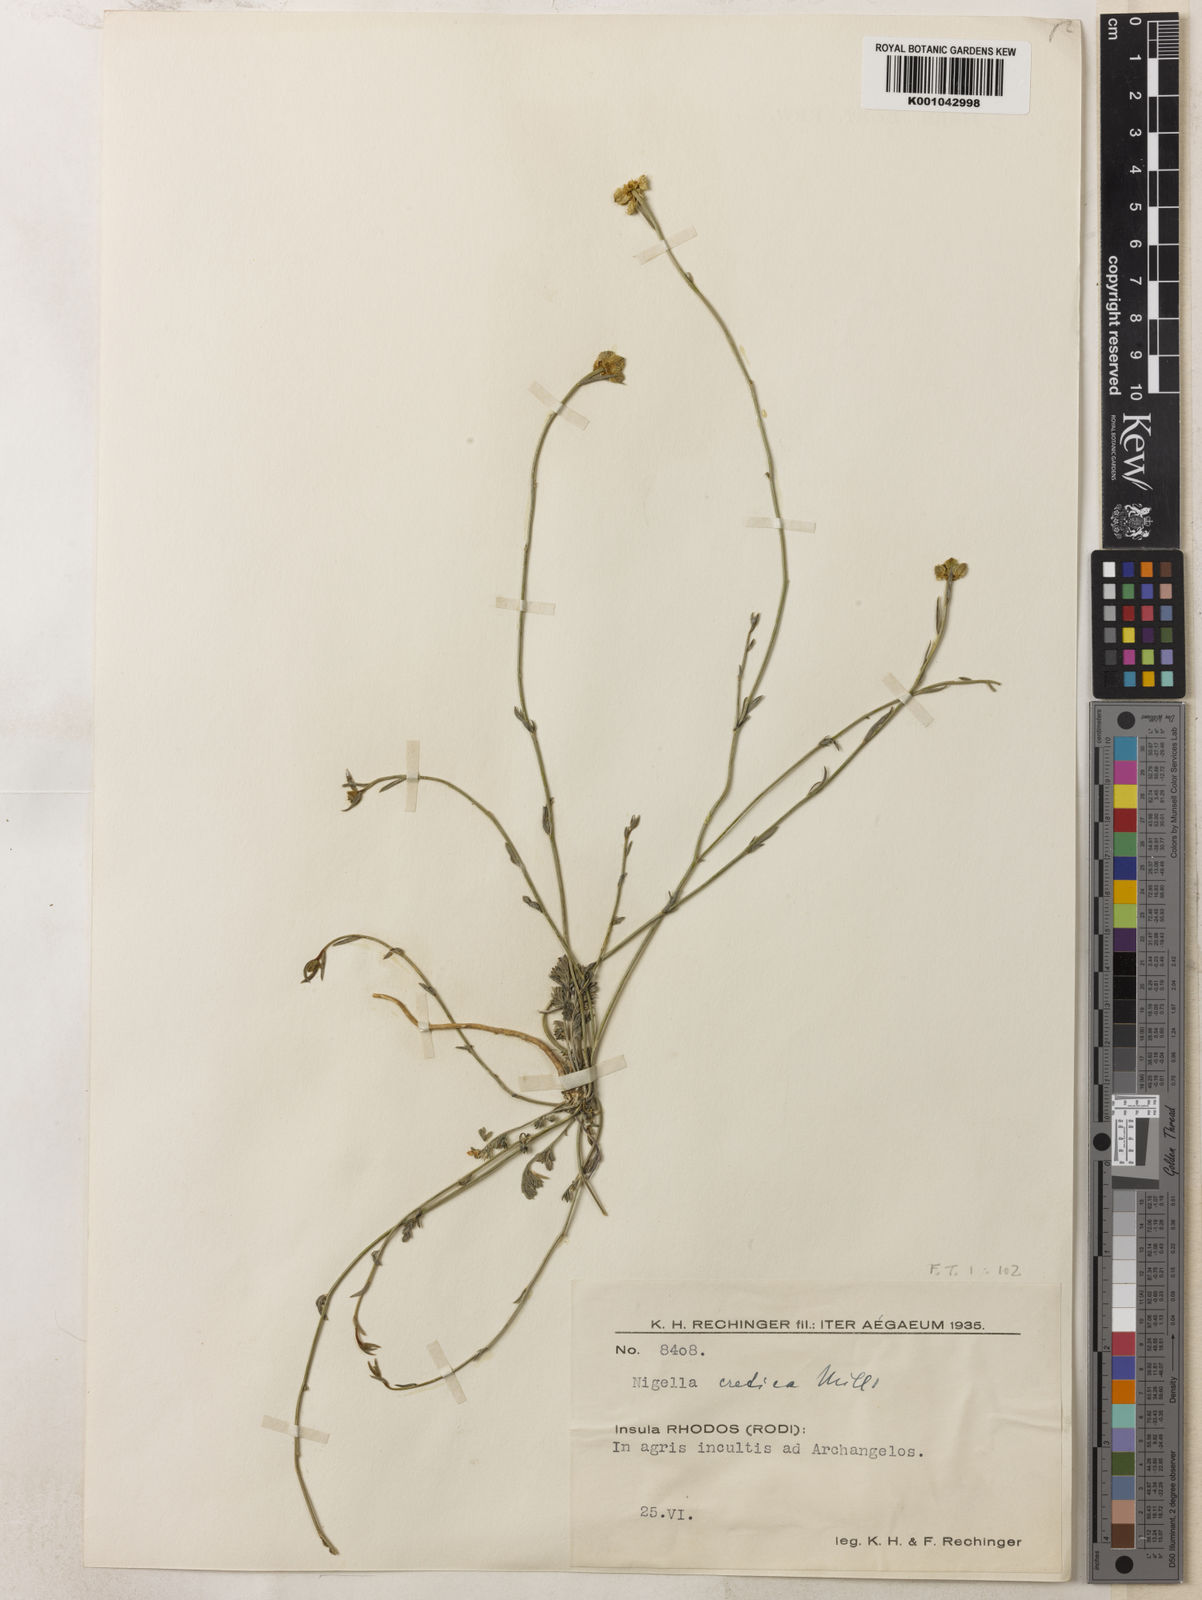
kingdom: Plantae
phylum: Tracheophyta
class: Magnoliopsida
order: Ranunculales
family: Ranunculaceae
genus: Nigella
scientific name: Nigella arvensis
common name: Wild fennel-flower
